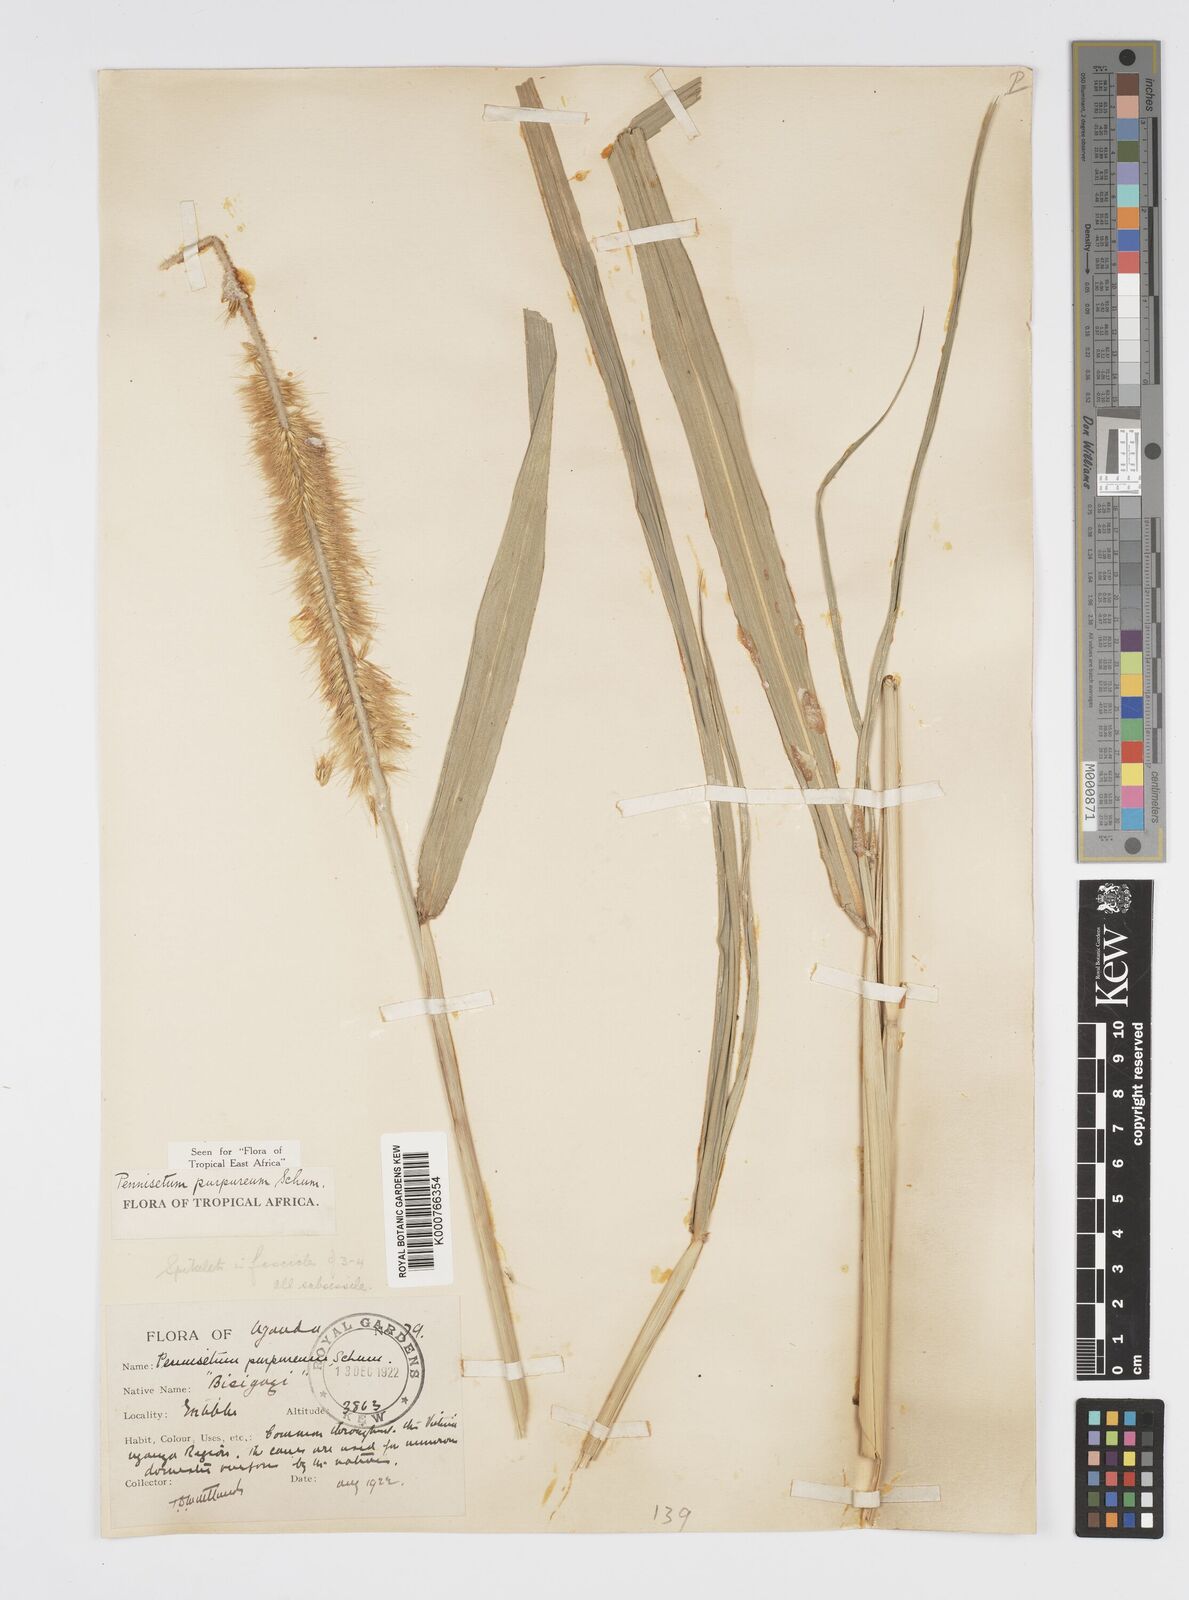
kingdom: Plantae
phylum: Tracheophyta
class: Liliopsida
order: Poales
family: Poaceae
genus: Cenchrus
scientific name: Cenchrus purpureus
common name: Elephant grass
